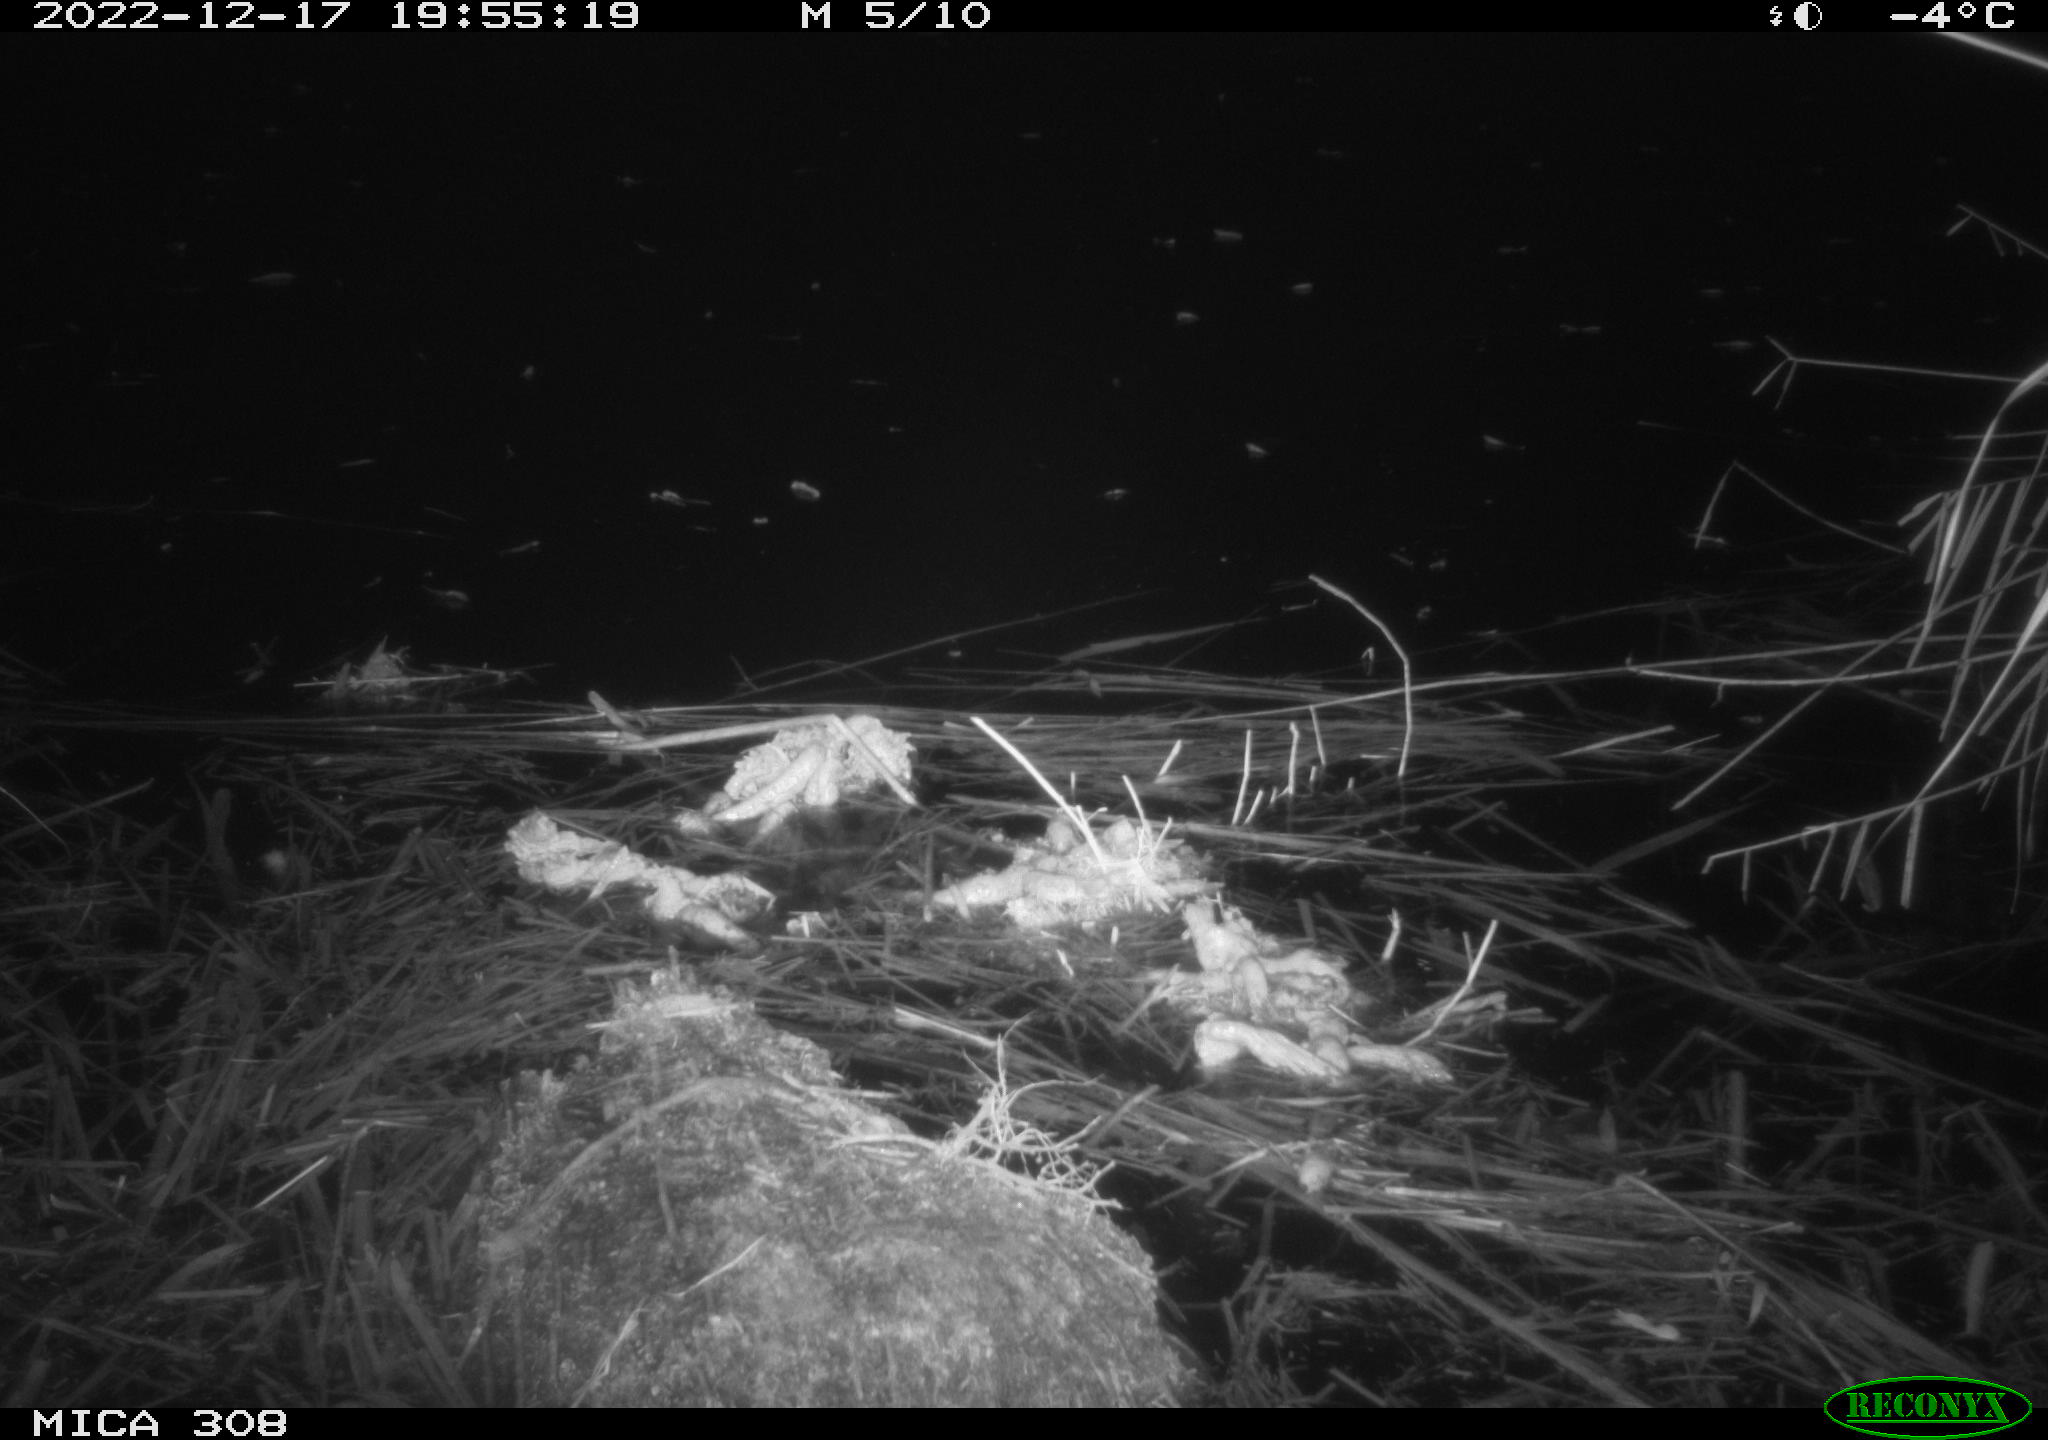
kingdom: Animalia
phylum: Chordata
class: Mammalia
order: Rodentia
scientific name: Rodentia
